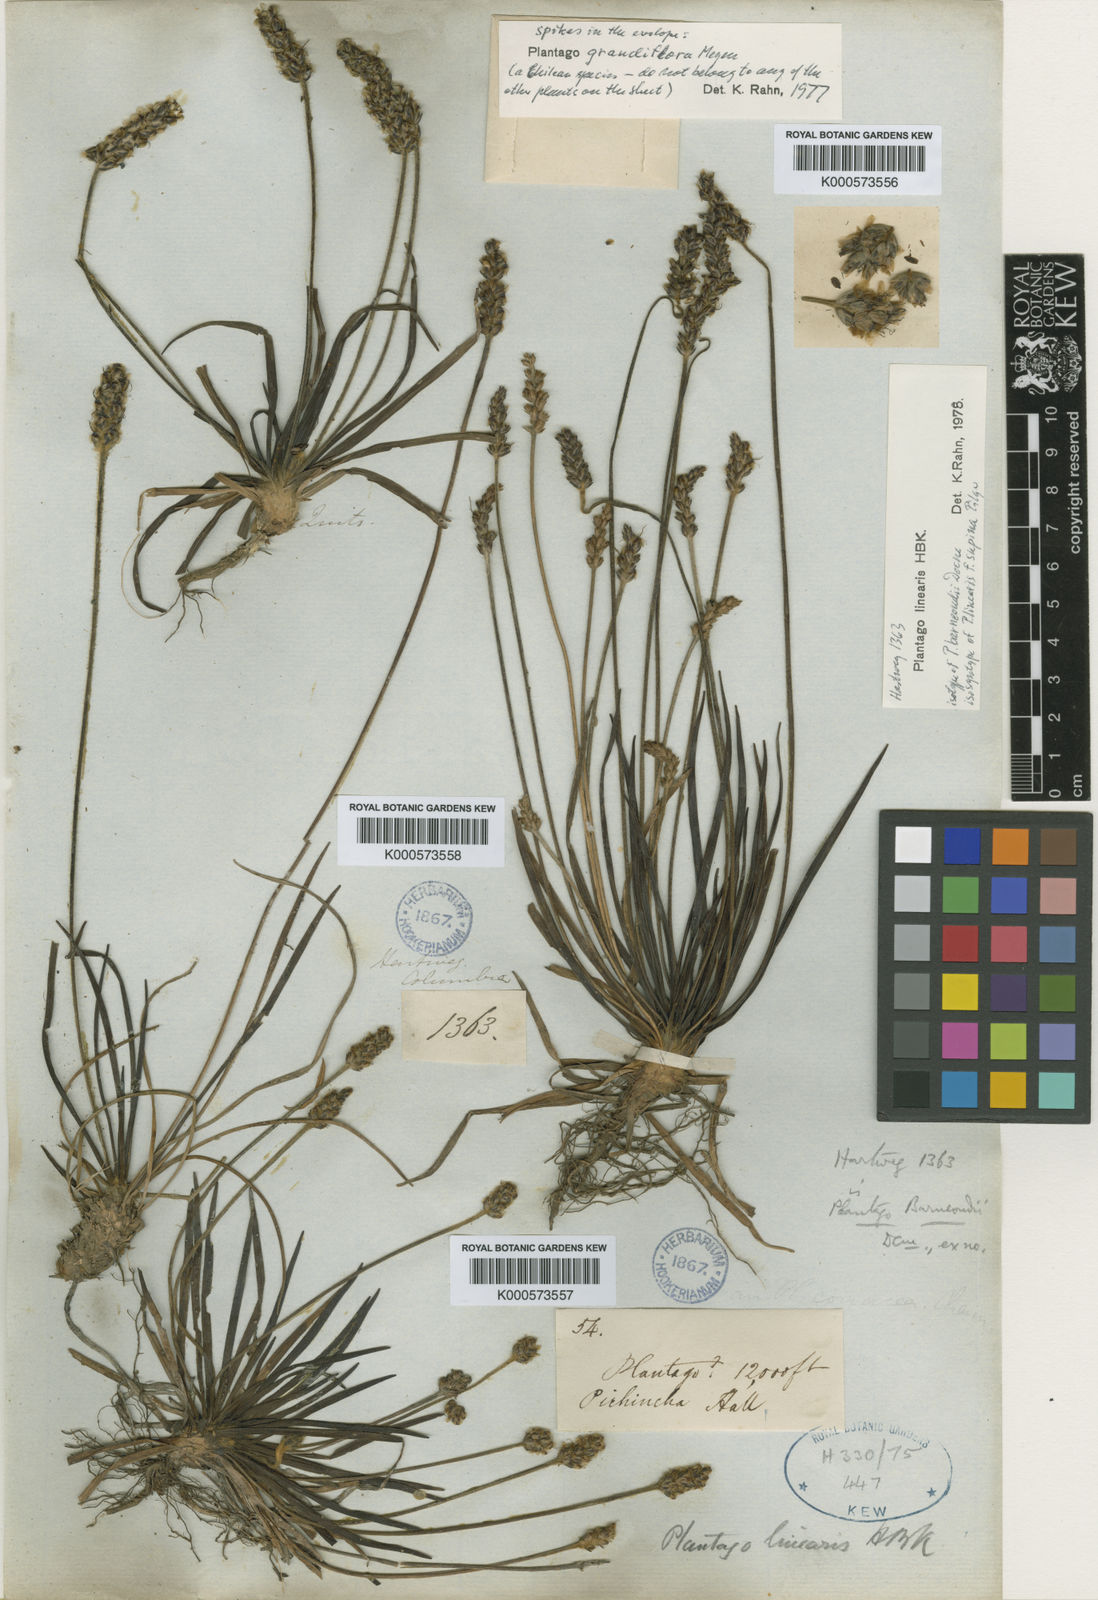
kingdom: Plantae
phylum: Tracheophyta
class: Magnoliopsida
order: Lamiales
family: Plantaginaceae
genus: Plantago
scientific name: Plantago linearis
